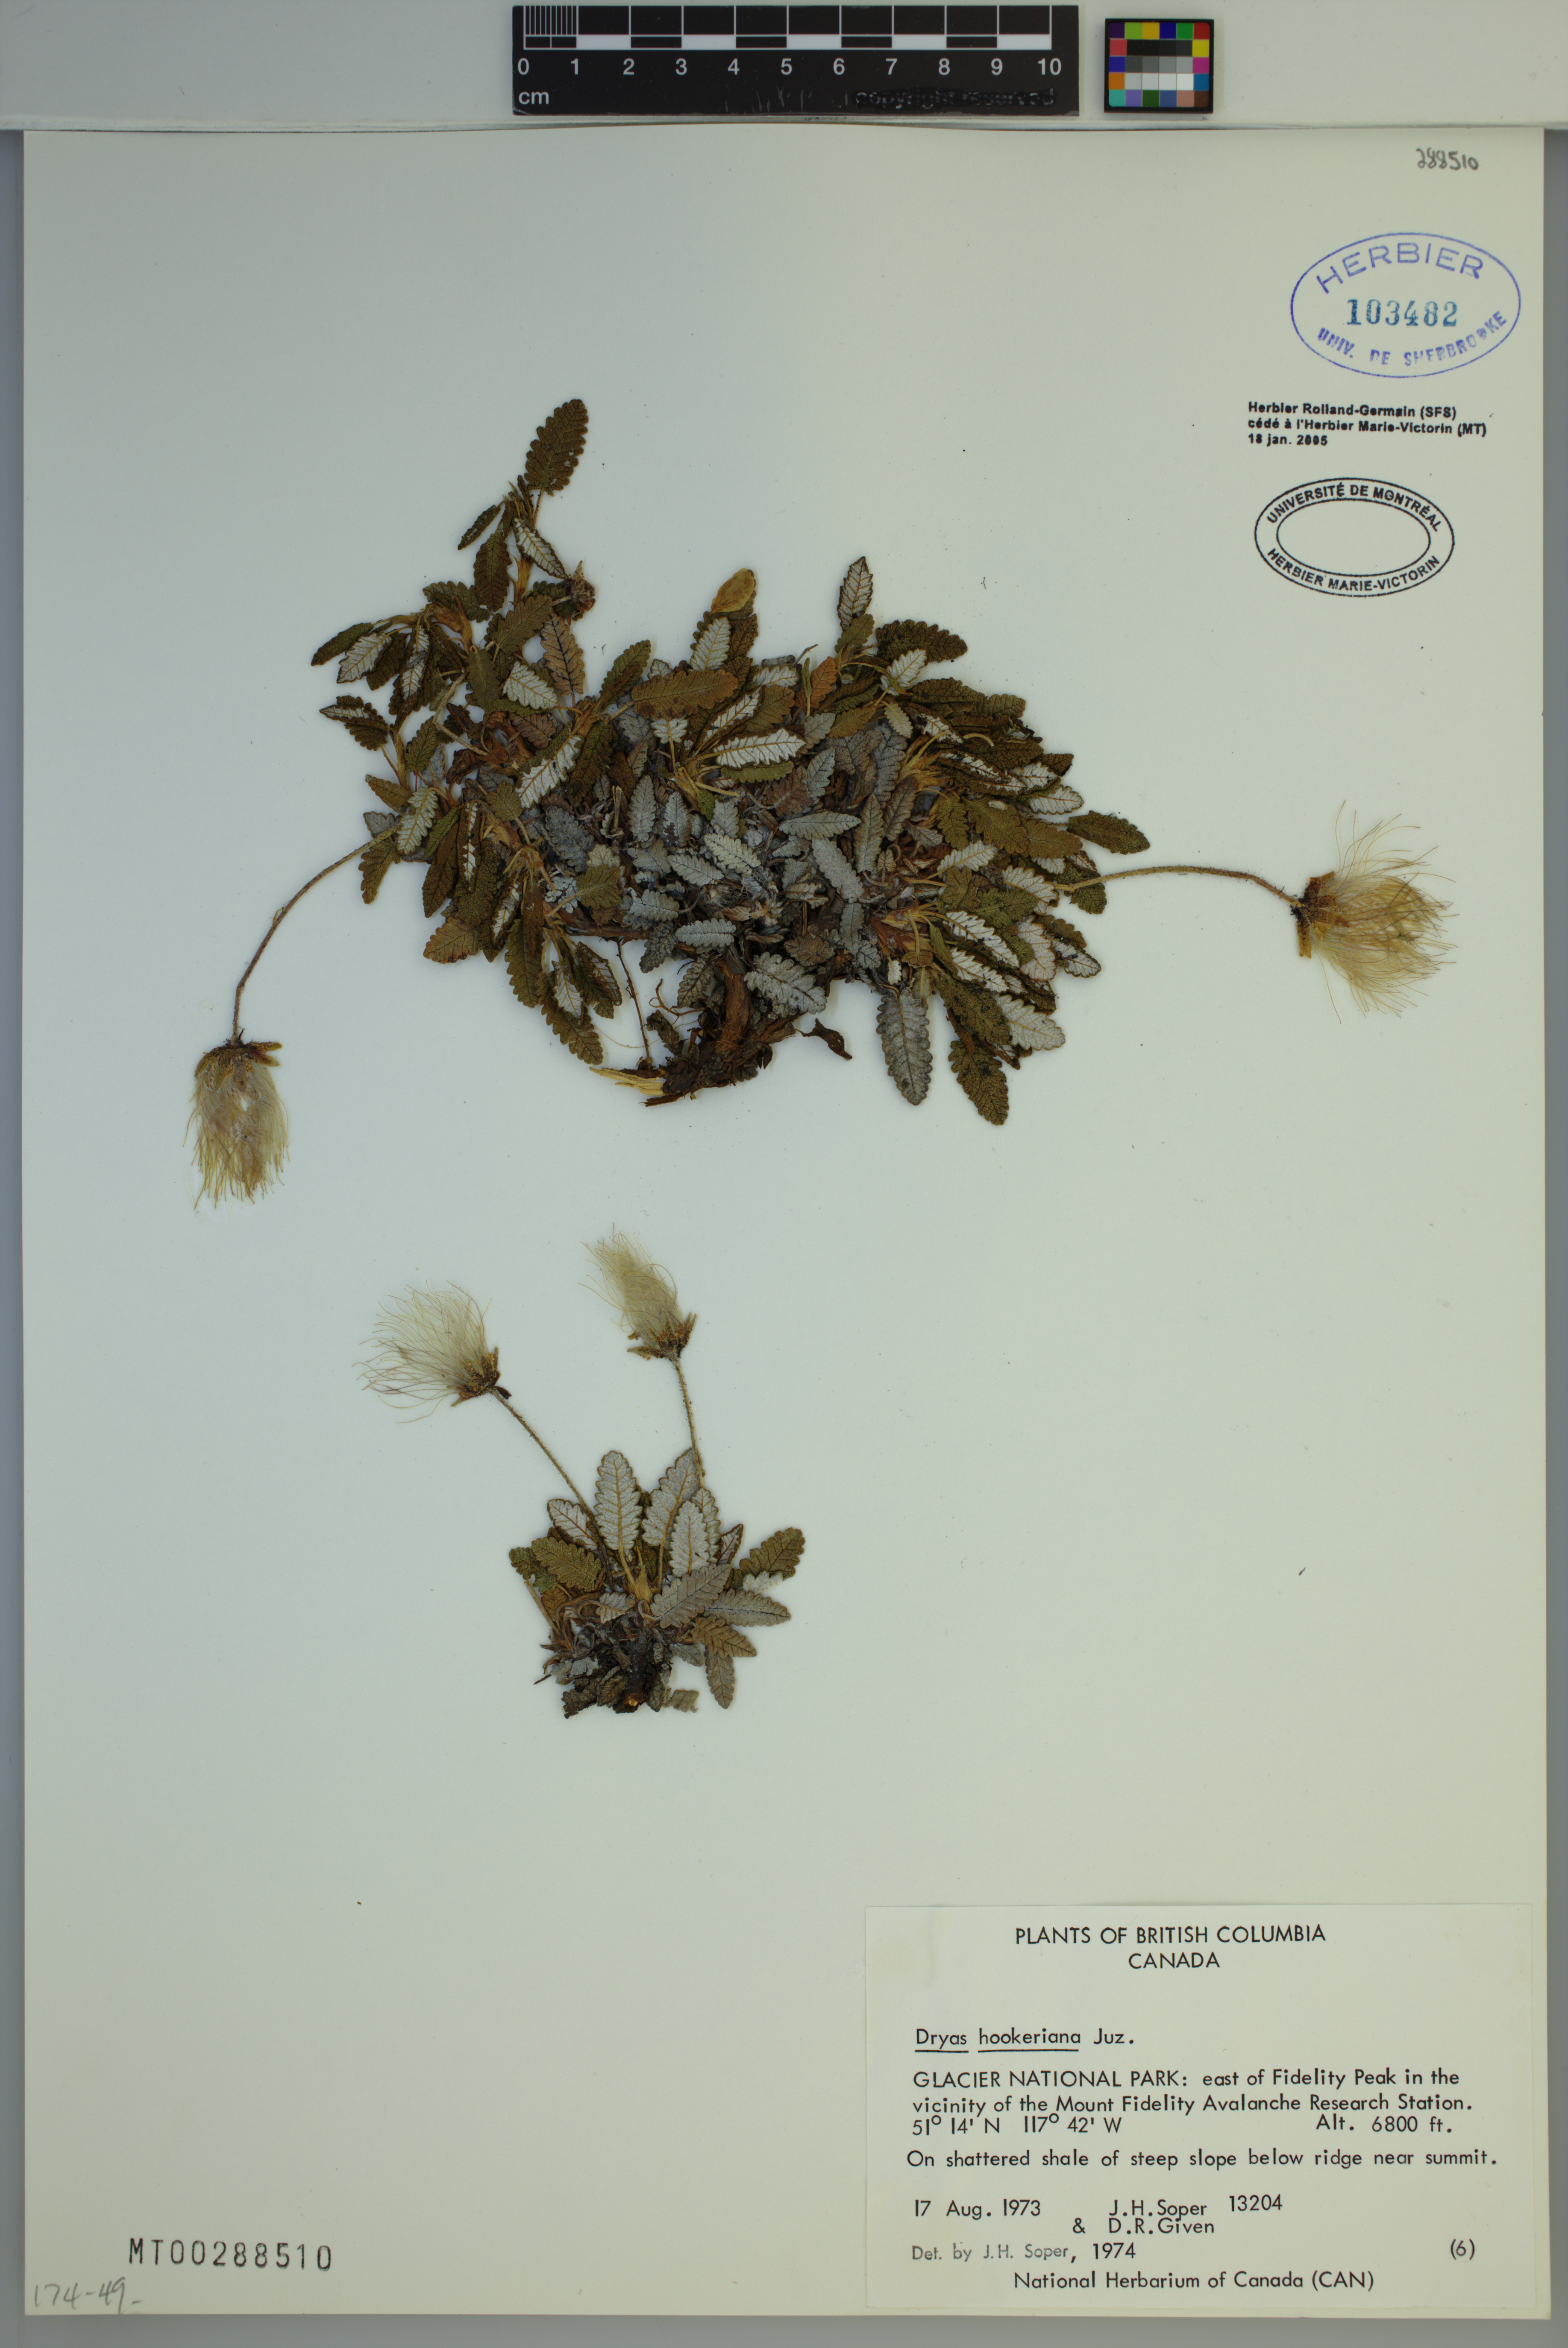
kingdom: Plantae
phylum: Tracheophyta
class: Magnoliopsida
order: Rosales
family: Rosaceae
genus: Dryas
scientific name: Dryas octopetala
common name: Eight-petal mountain-avens
